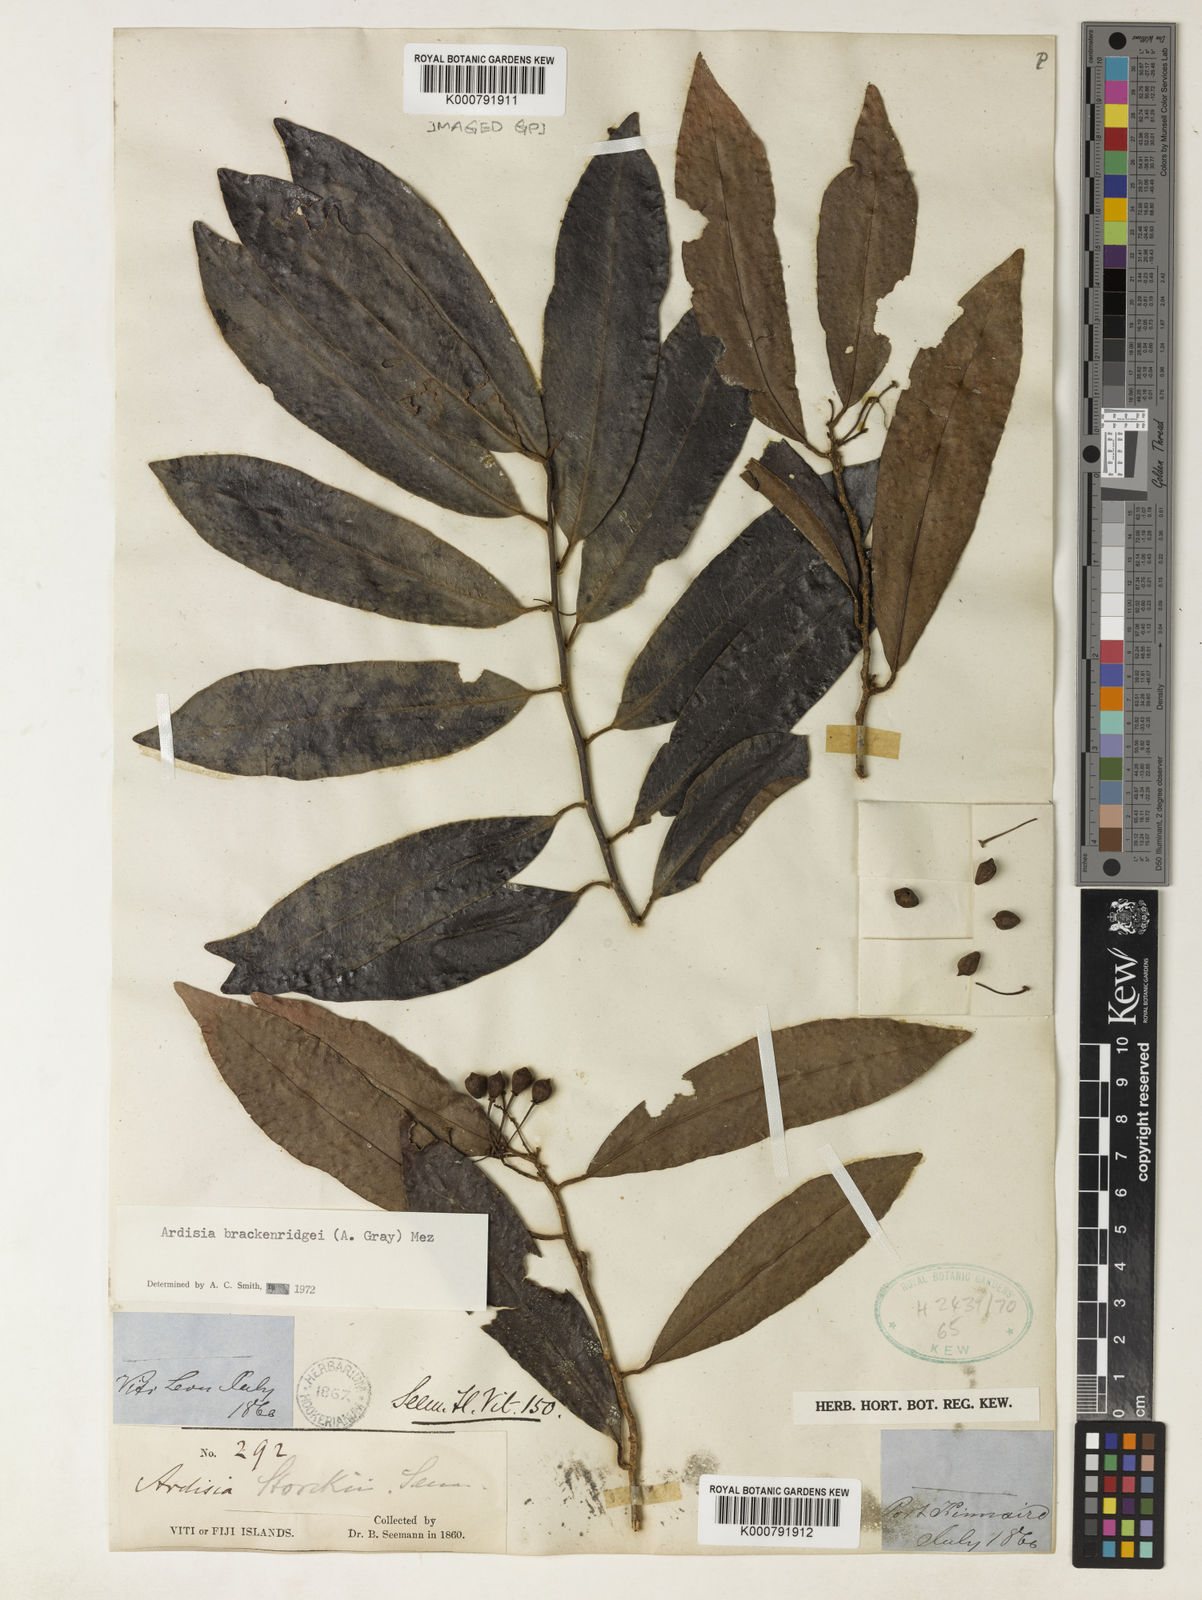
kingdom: Plantae
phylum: Tracheophyta
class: Magnoliopsida
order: Ericales
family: Primulaceae
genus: Ardisia
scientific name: Ardisia brackenridgei
